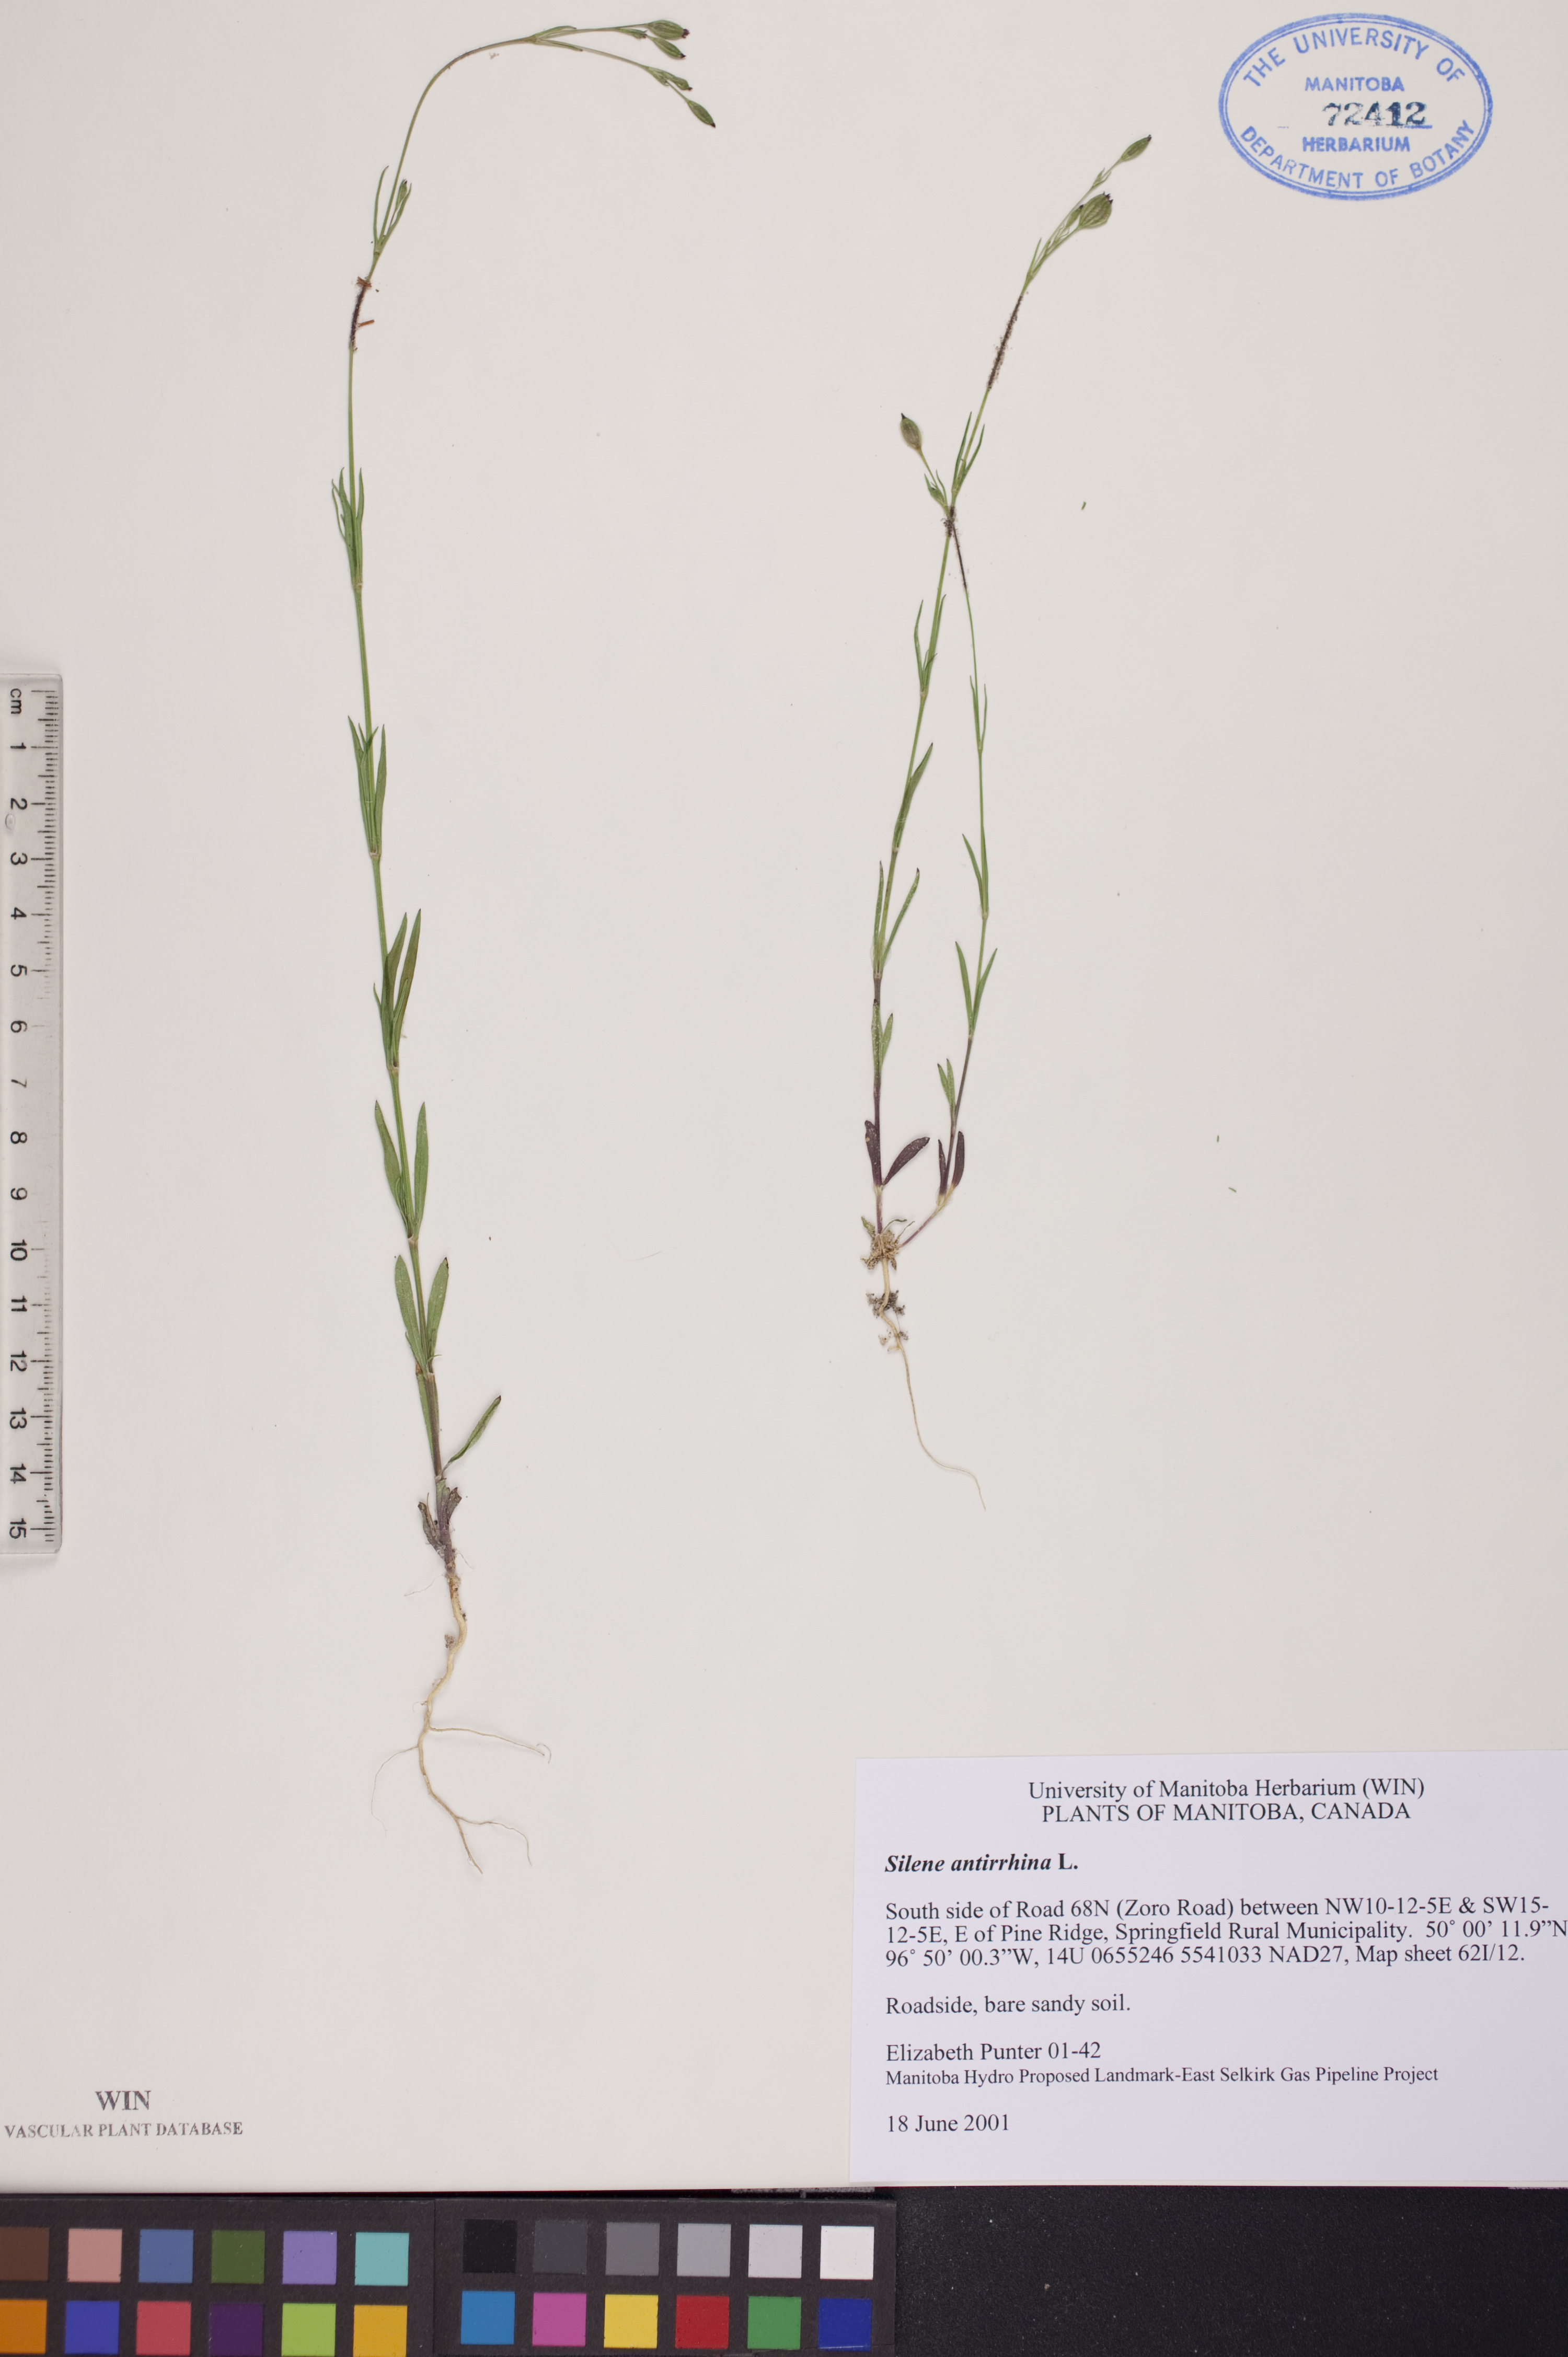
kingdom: Plantae
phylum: Tracheophyta
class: Magnoliopsida
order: Caryophyllales
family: Caryophyllaceae
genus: Silene
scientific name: Silene antirrhina
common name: Sleepy catchfly
